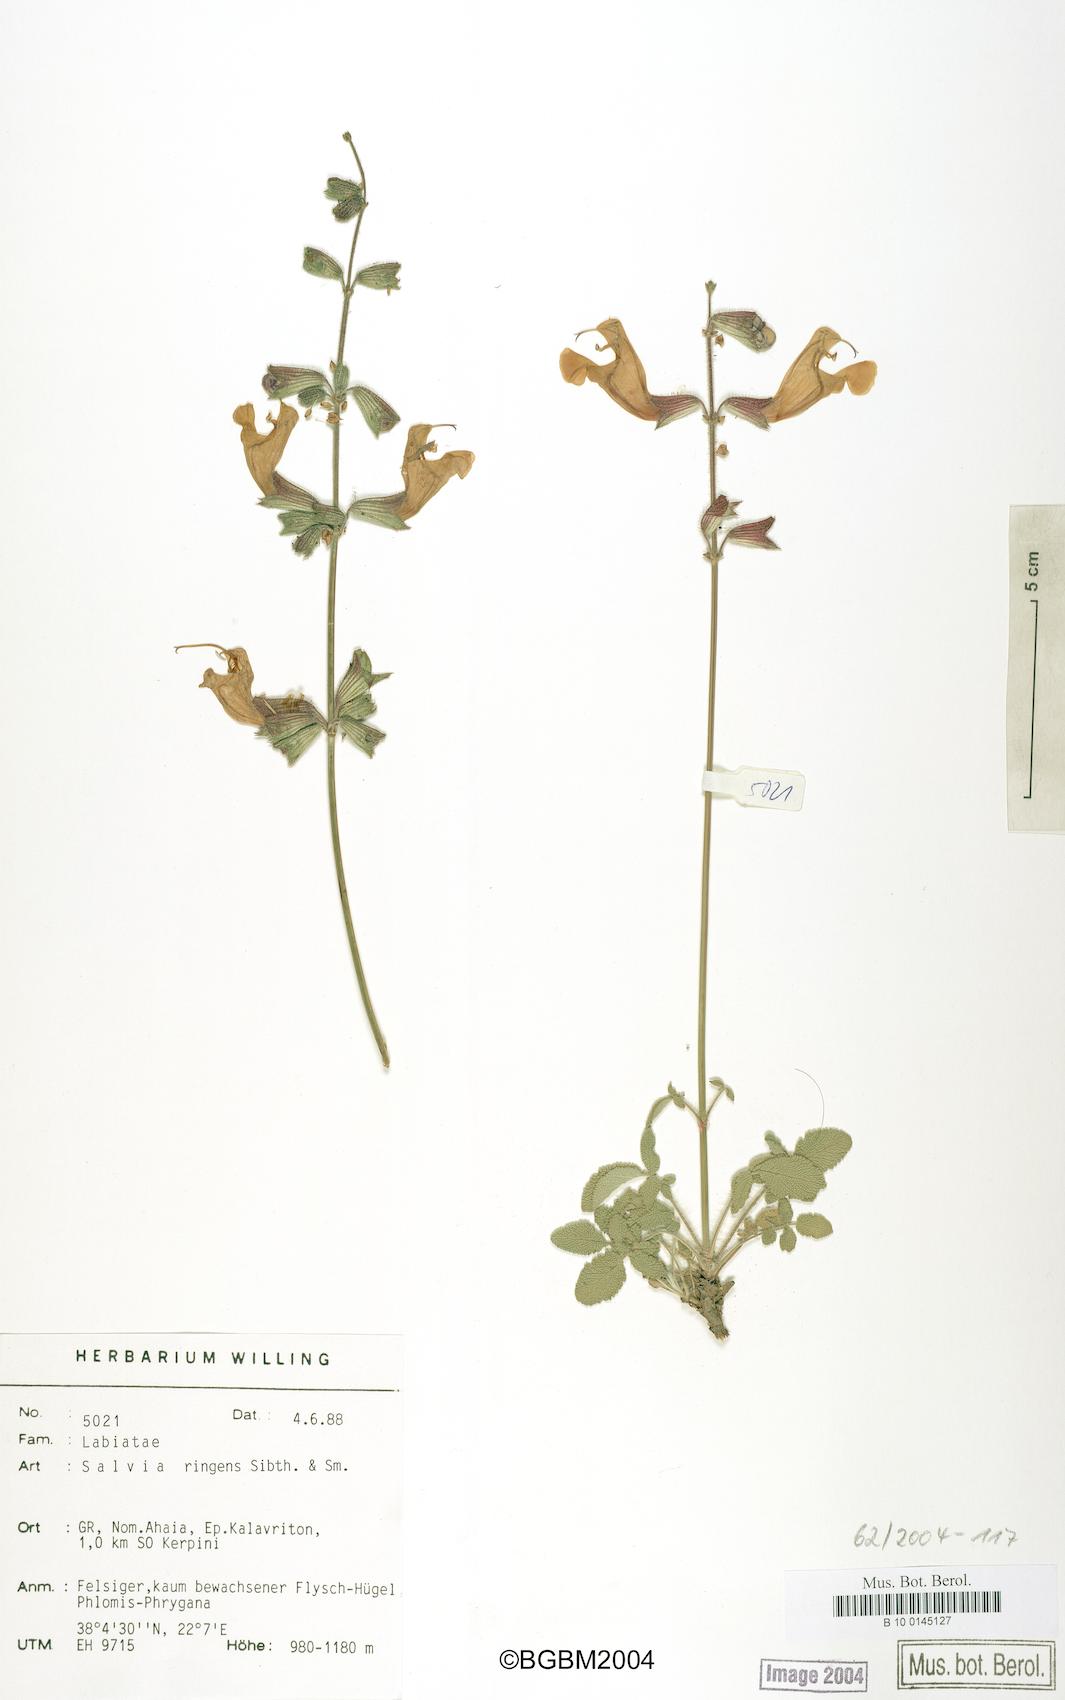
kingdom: Plantae
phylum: Tracheophyta
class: Magnoliopsida
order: Lamiales
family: Lamiaceae
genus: Salvia
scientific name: Salvia ringens
